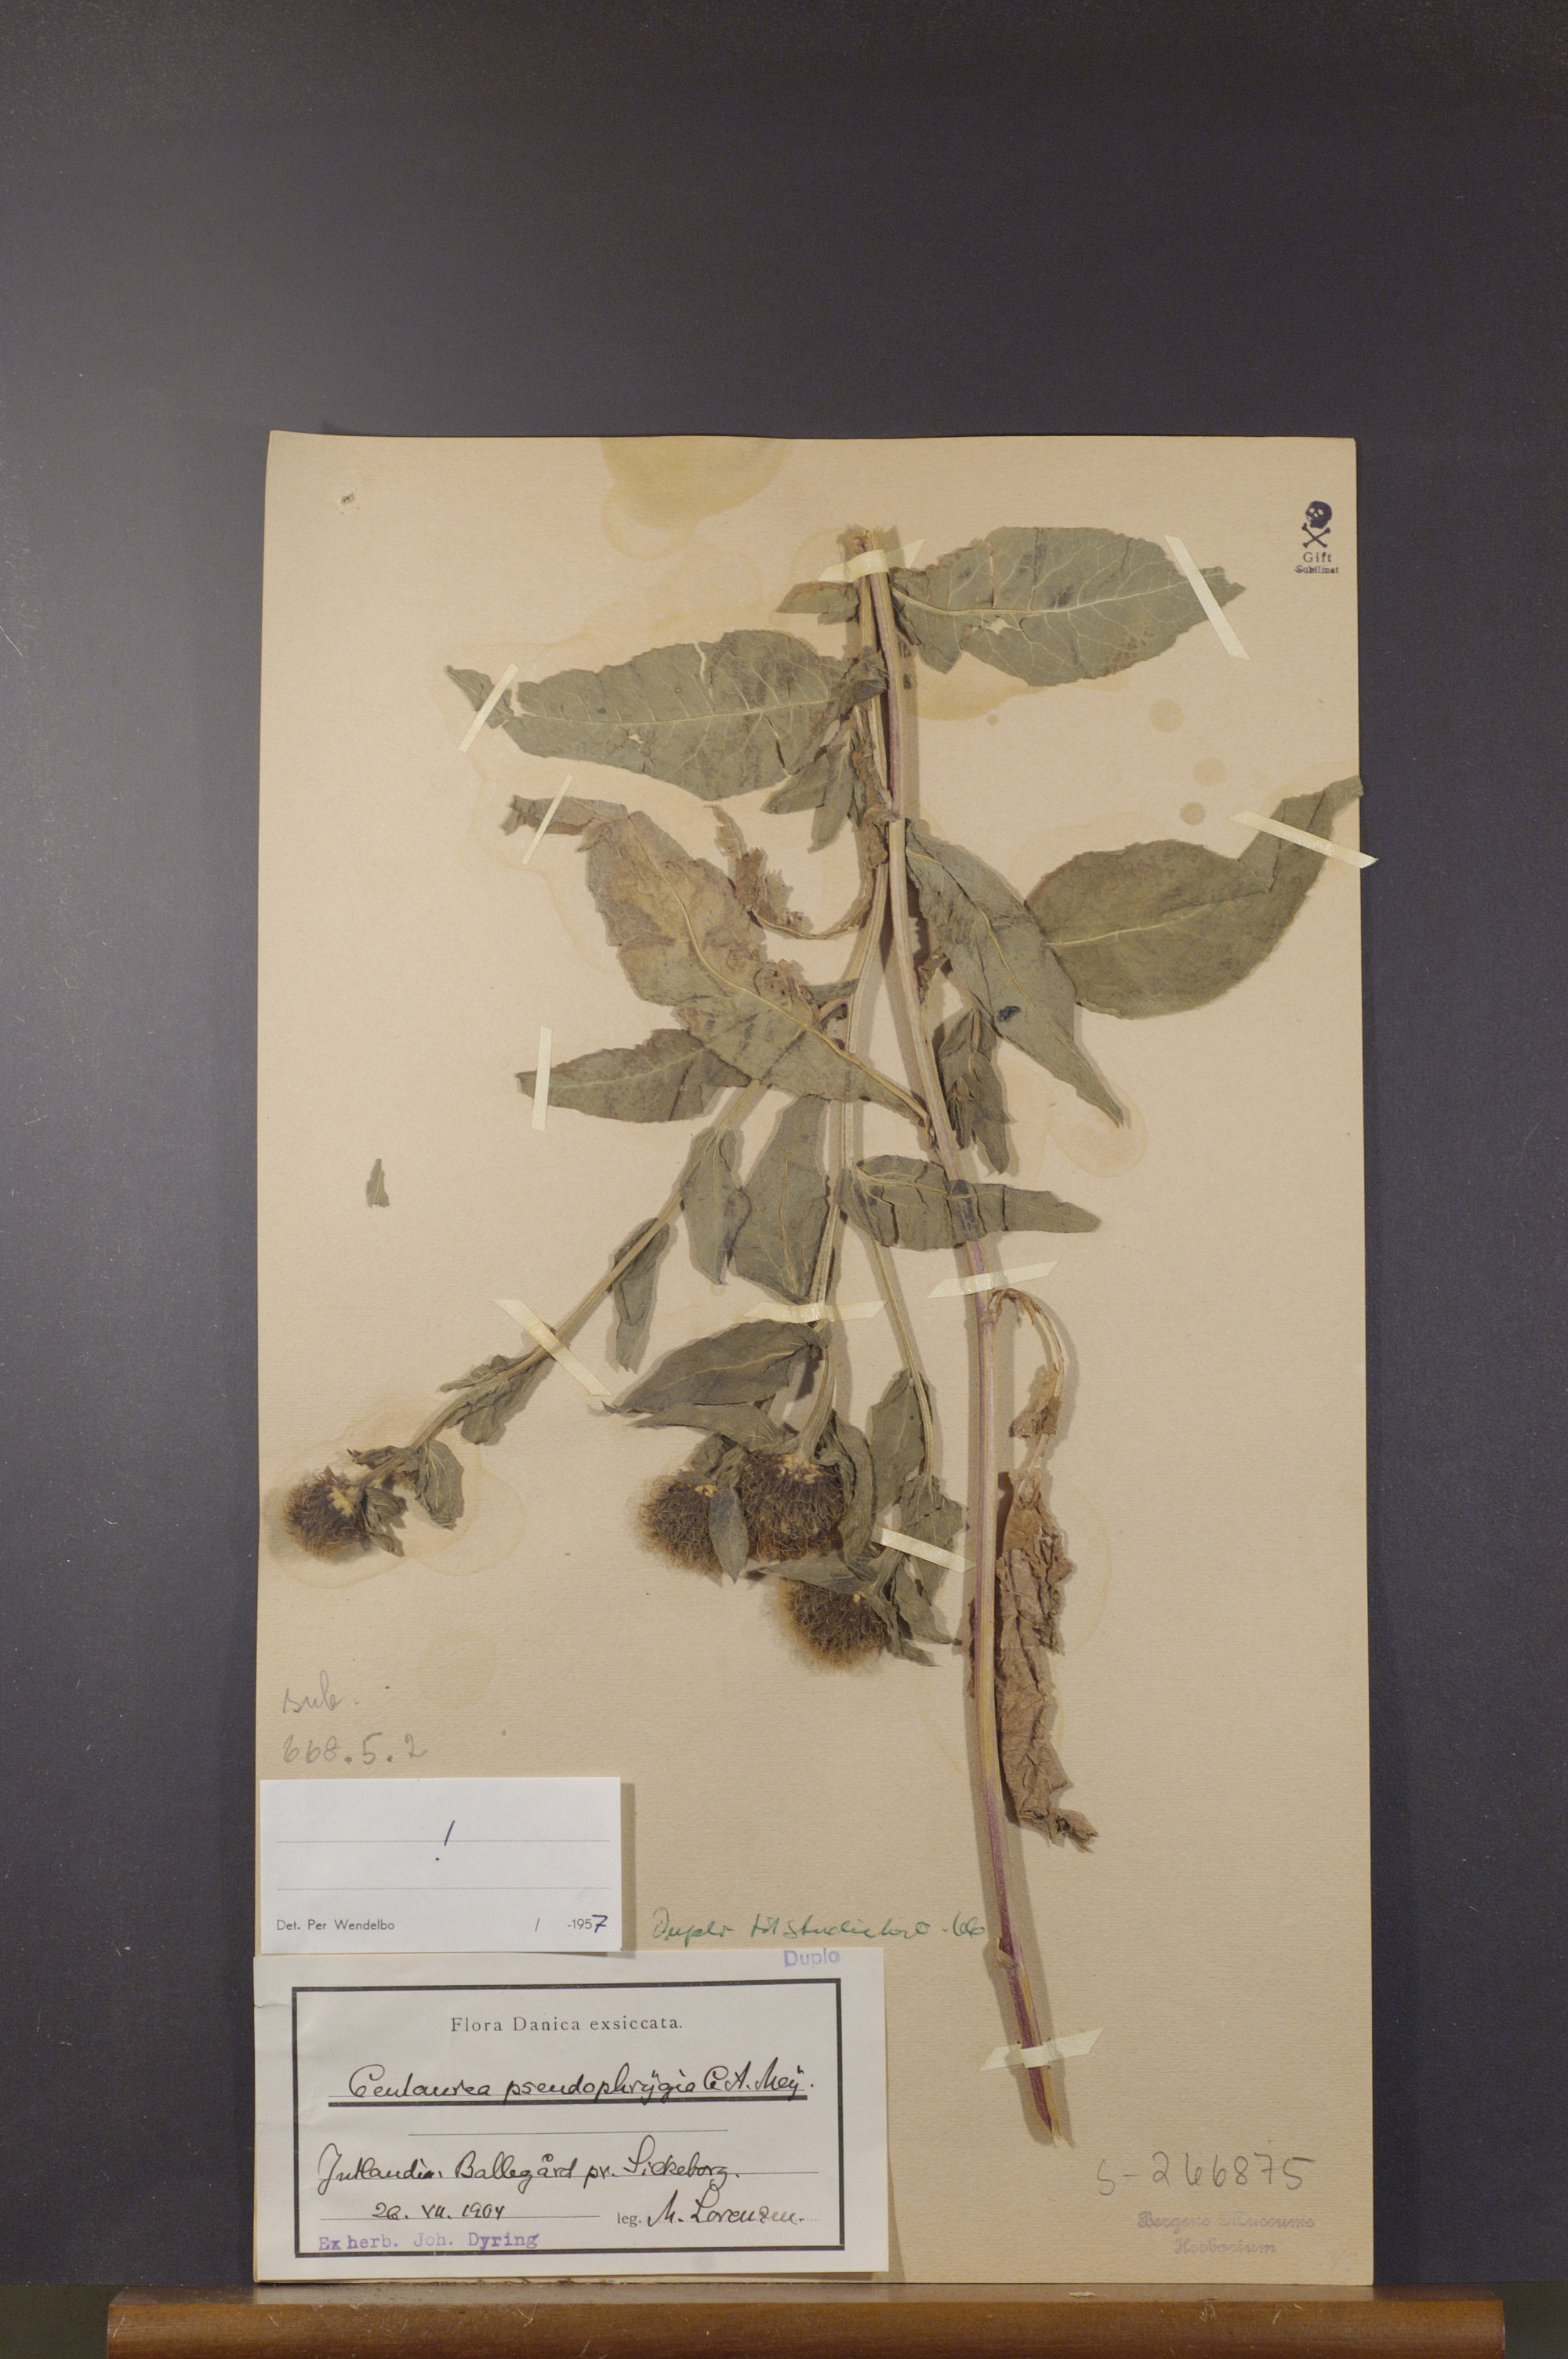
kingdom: Plantae
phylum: Tracheophyta
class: Magnoliopsida
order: Asterales
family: Asteraceae
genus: Centaurea
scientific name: Centaurea pseudophrygia
